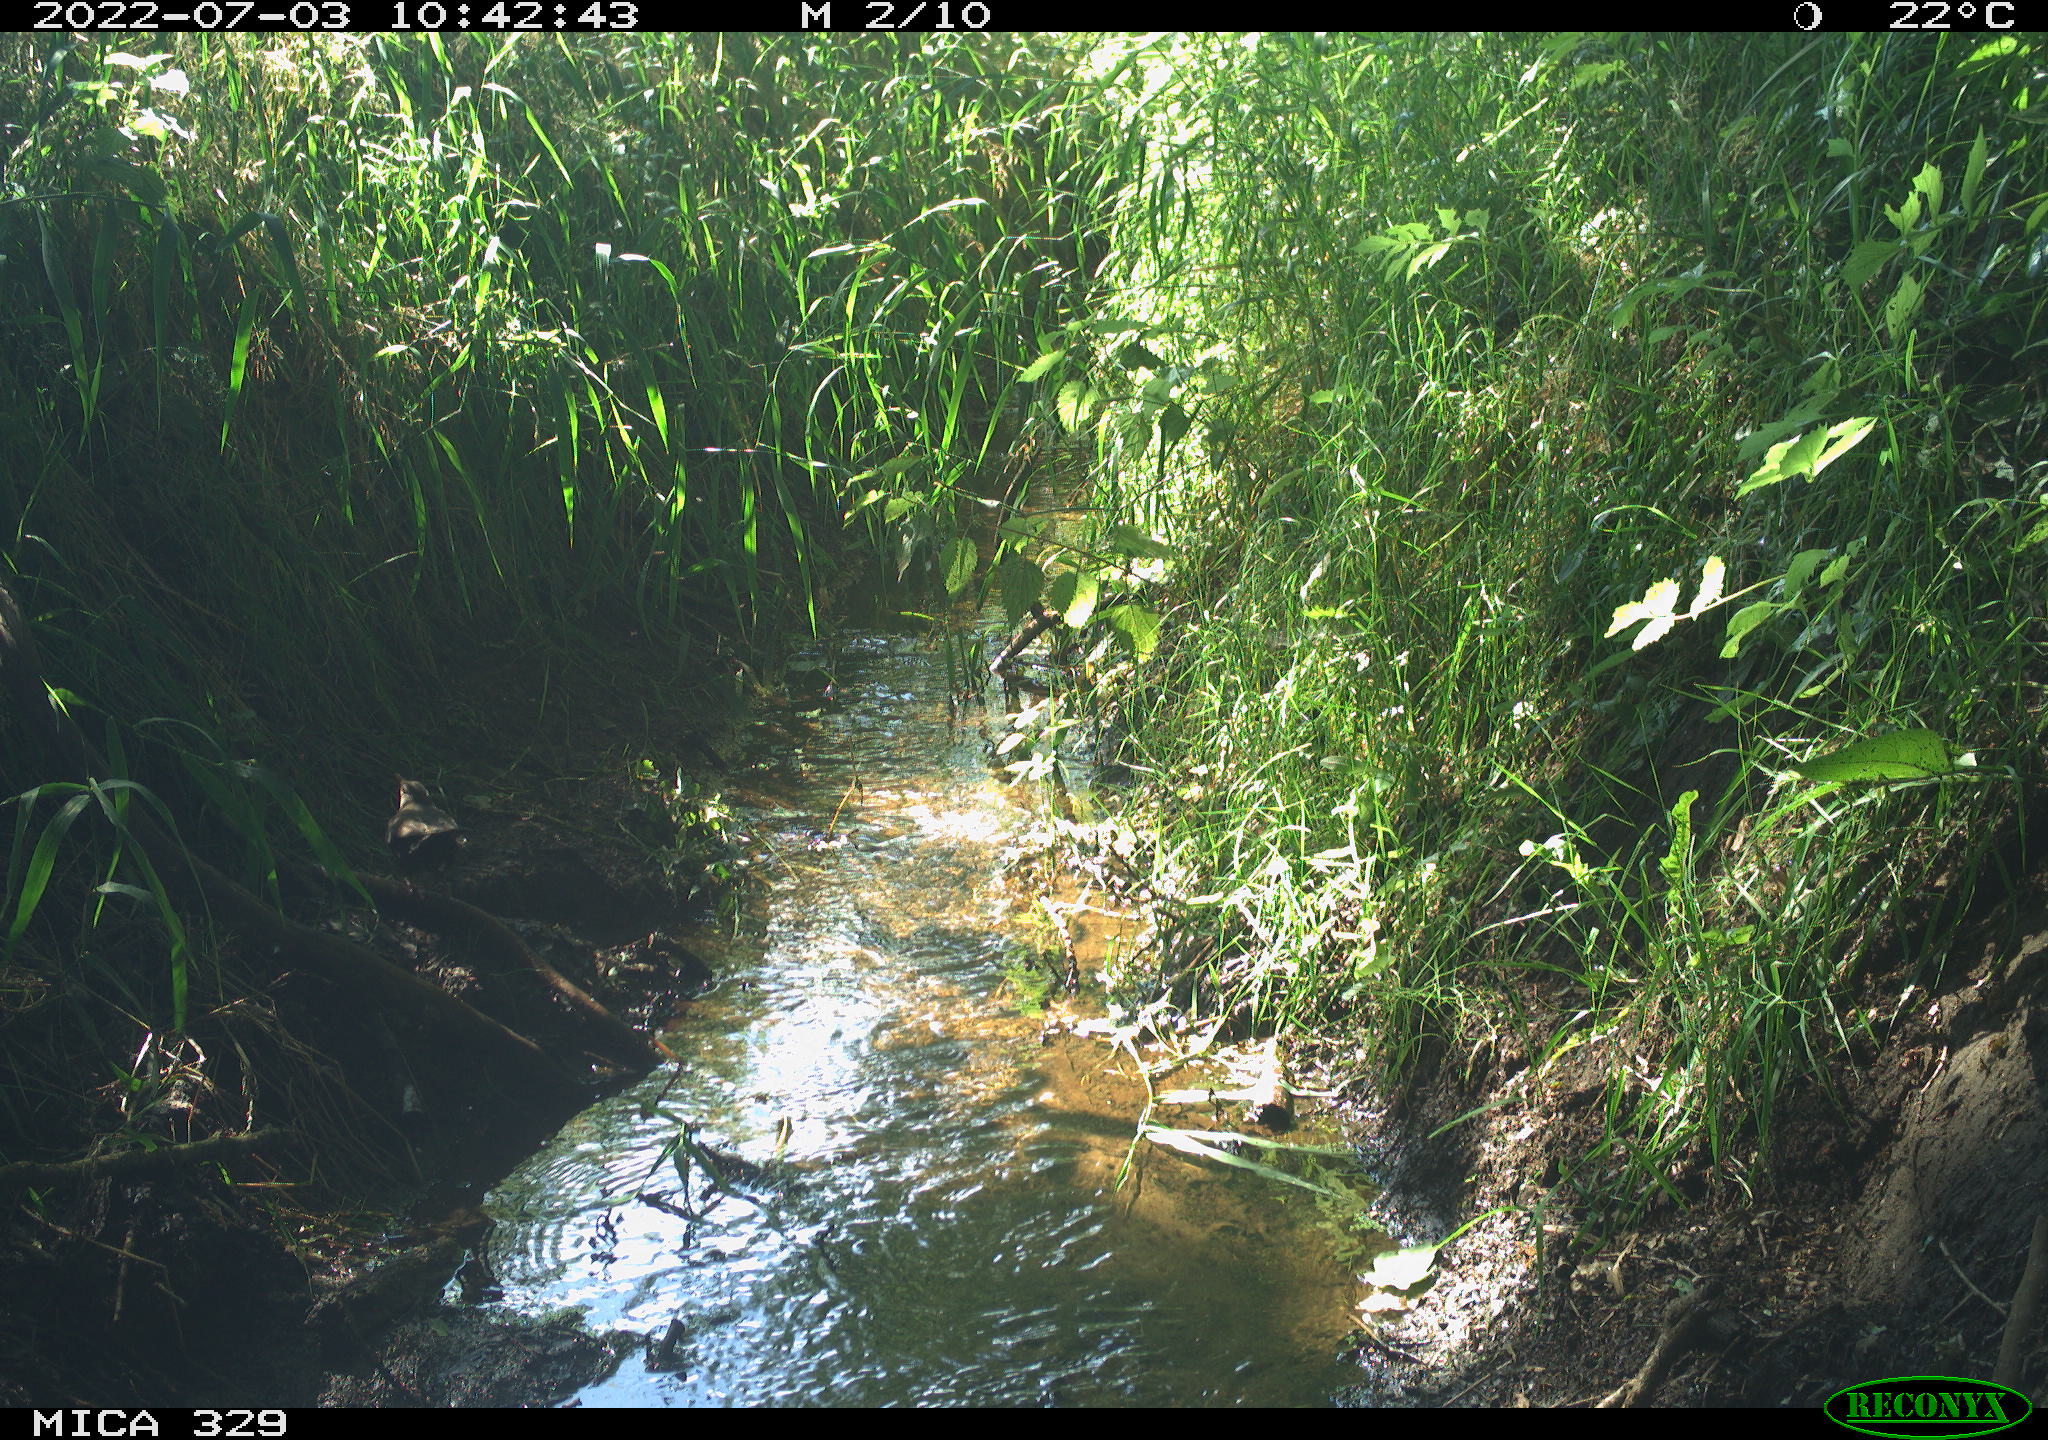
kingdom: Animalia
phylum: Chordata
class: Aves
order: Passeriformes
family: Turdidae
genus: Turdus
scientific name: Turdus merula
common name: Common blackbird
